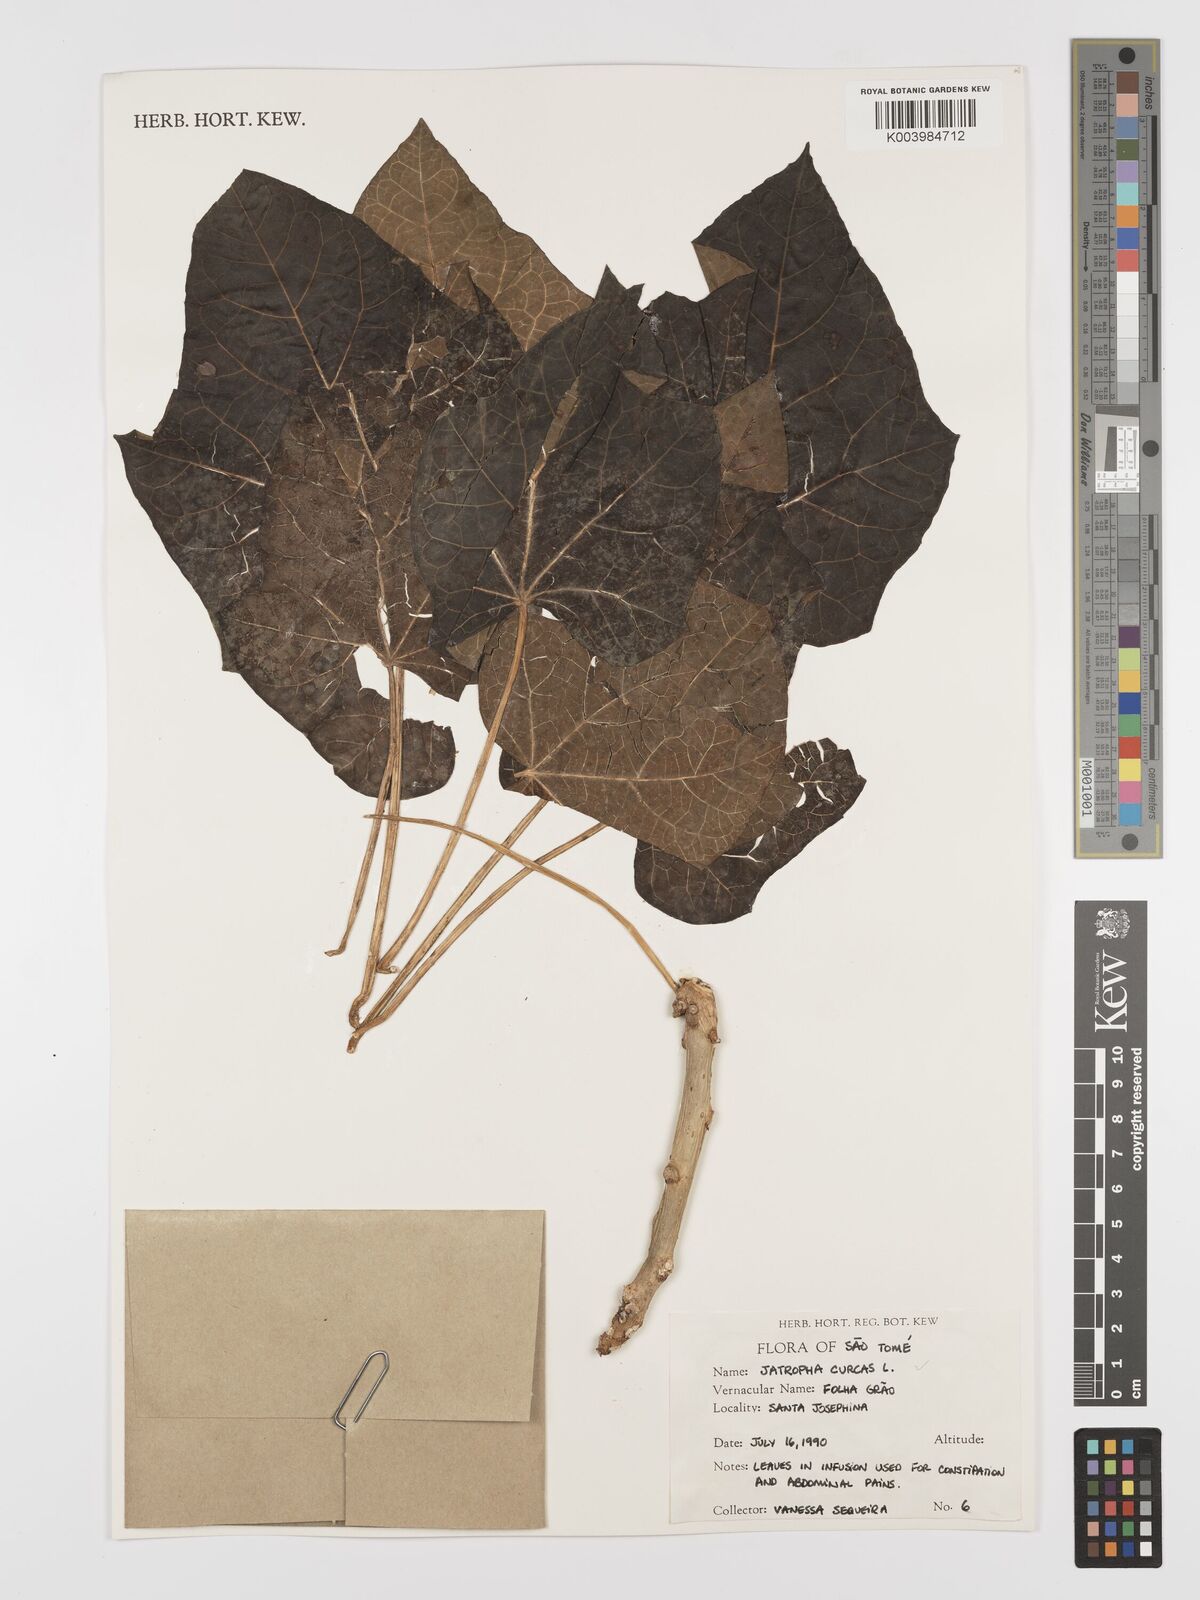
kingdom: Plantae
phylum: Tracheophyta
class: Magnoliopsida
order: Malpighiales
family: Euphorbiaceae
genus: Jatropha
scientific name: Jatropha curcas
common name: Barbados nut
